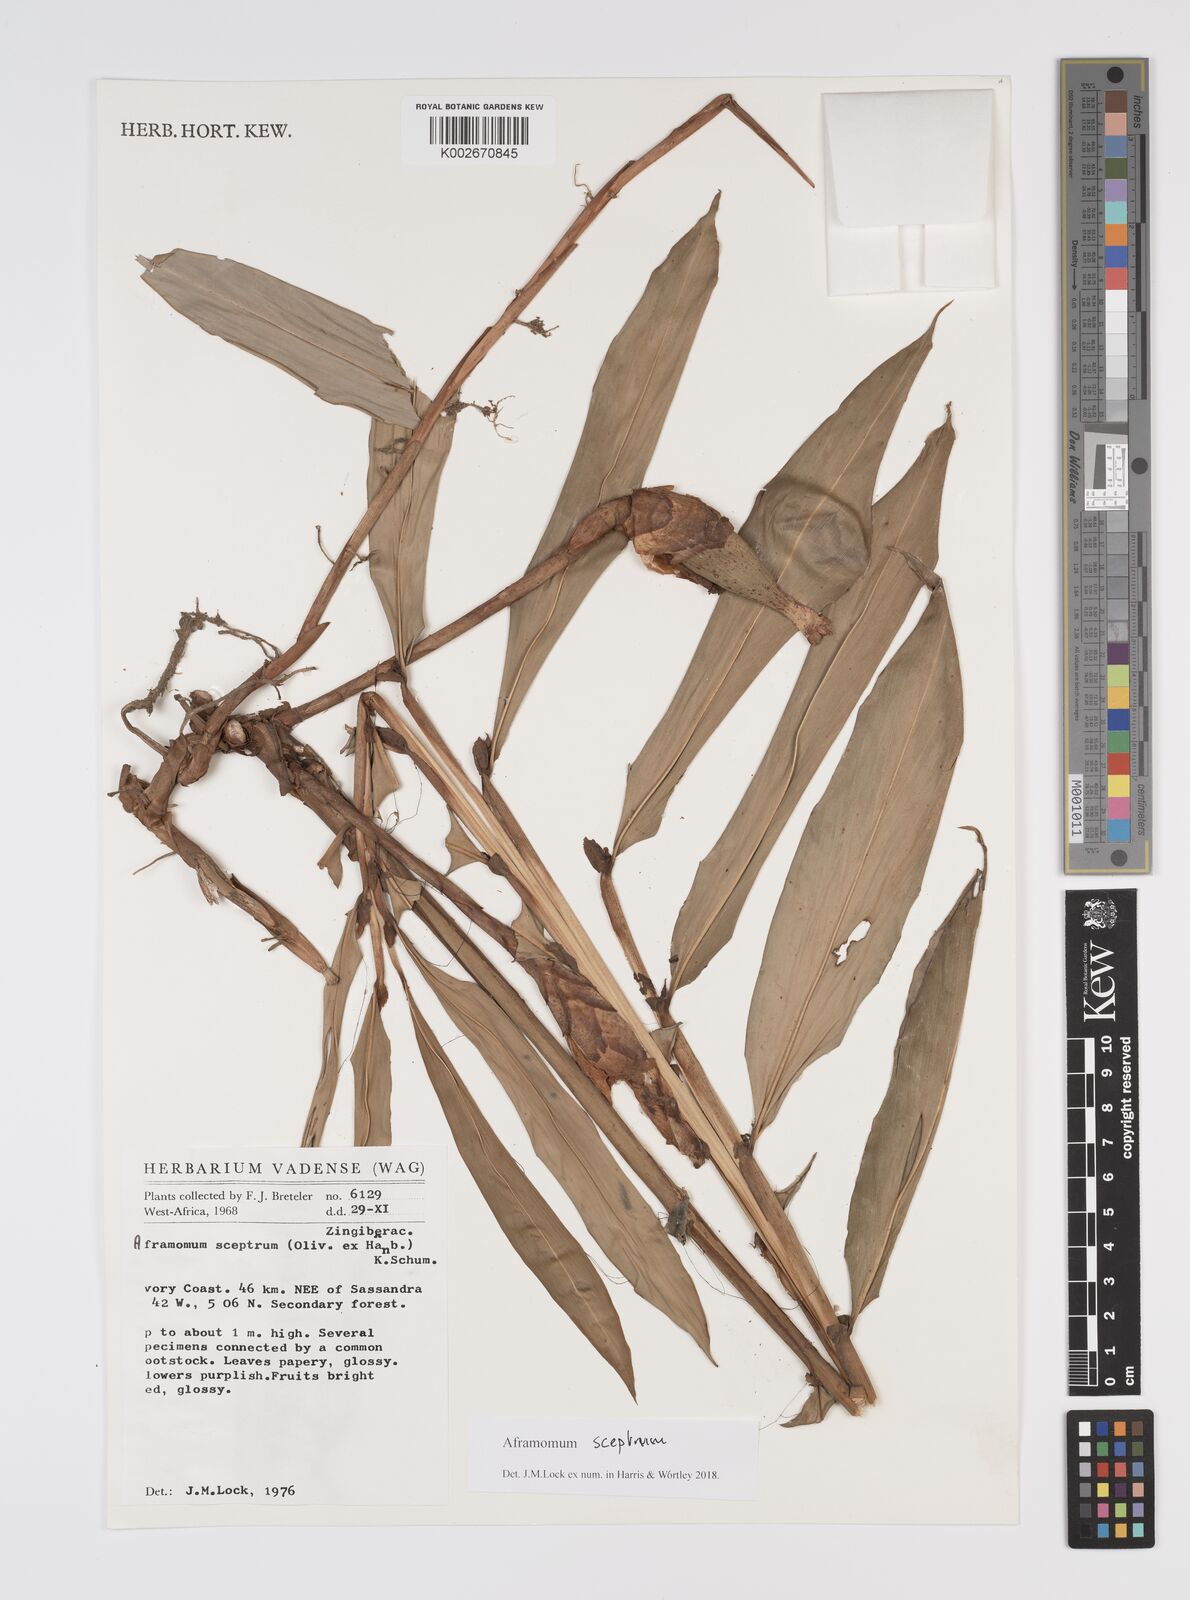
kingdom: Plantae
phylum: Tracheophyta
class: Liliopsida
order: Zingiberales
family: Zingiberaceae
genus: Aframomum
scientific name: Aframomum cereum
